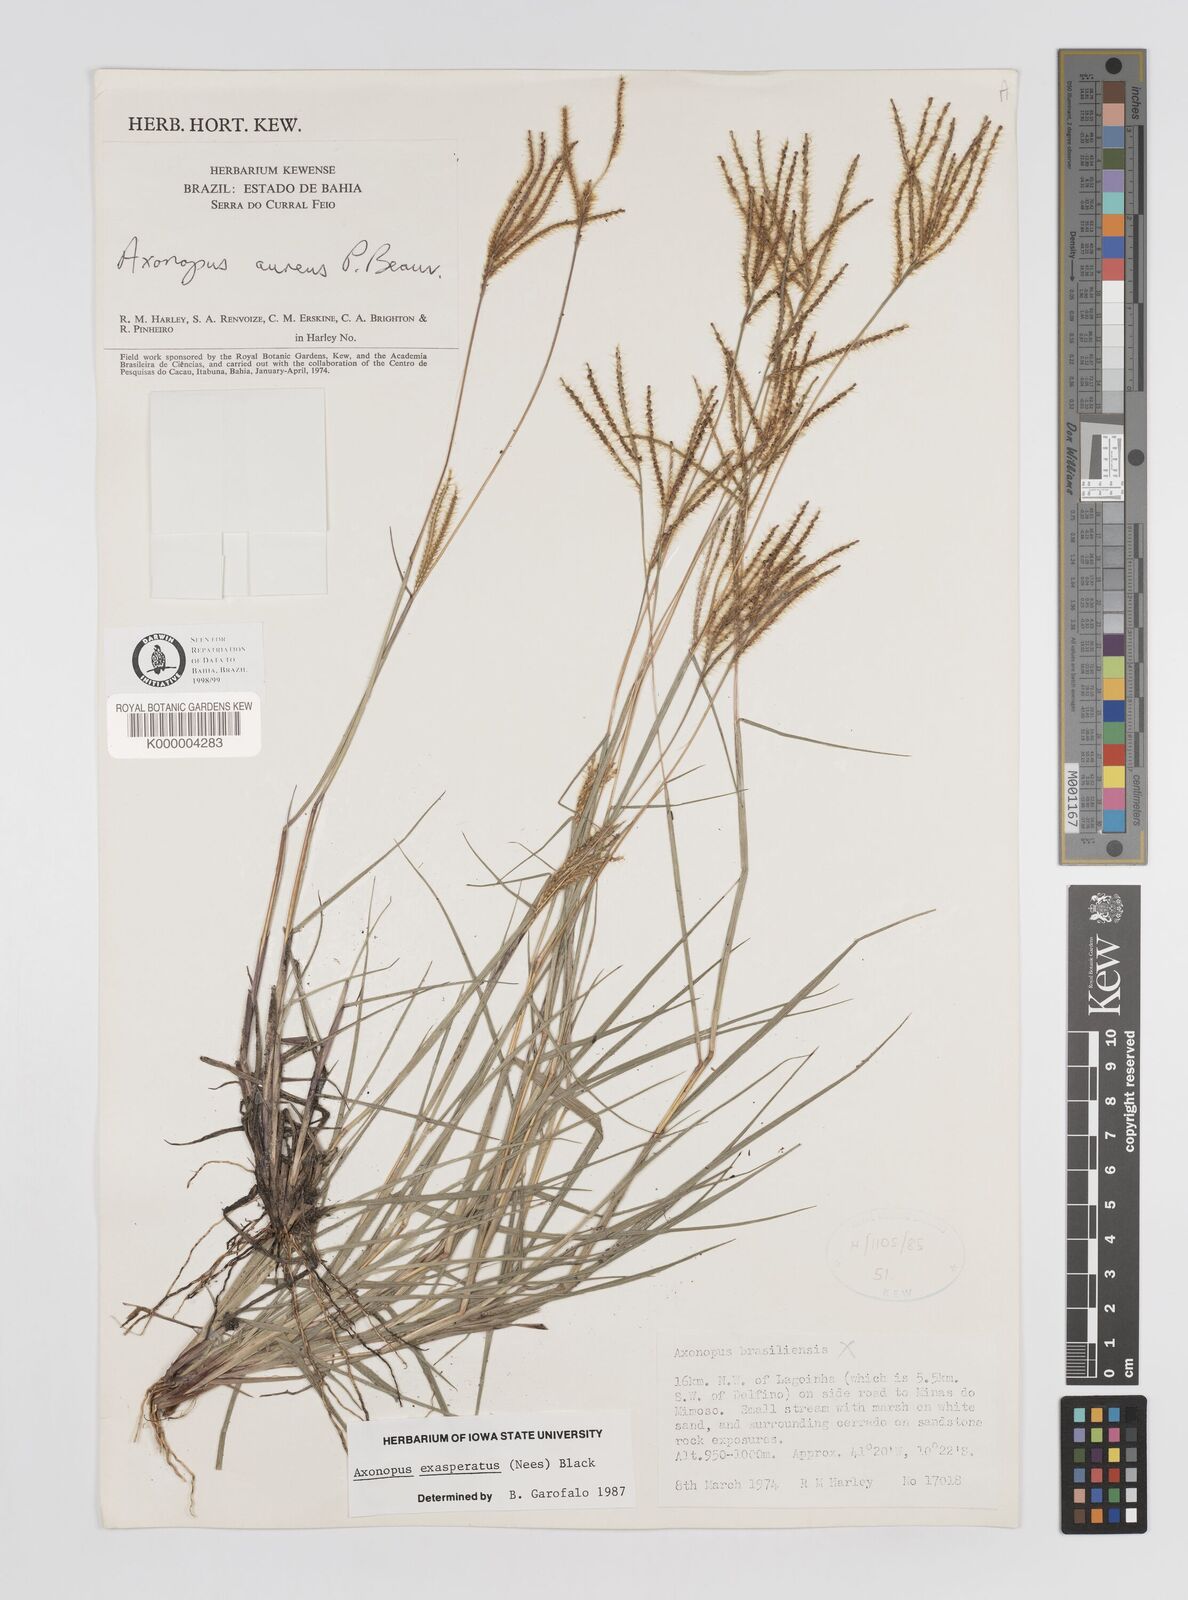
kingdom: Plantae
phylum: Tracheophyta
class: Liliopsida
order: Poales
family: Poaceae
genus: Axonopus
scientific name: Axonopus aureus
